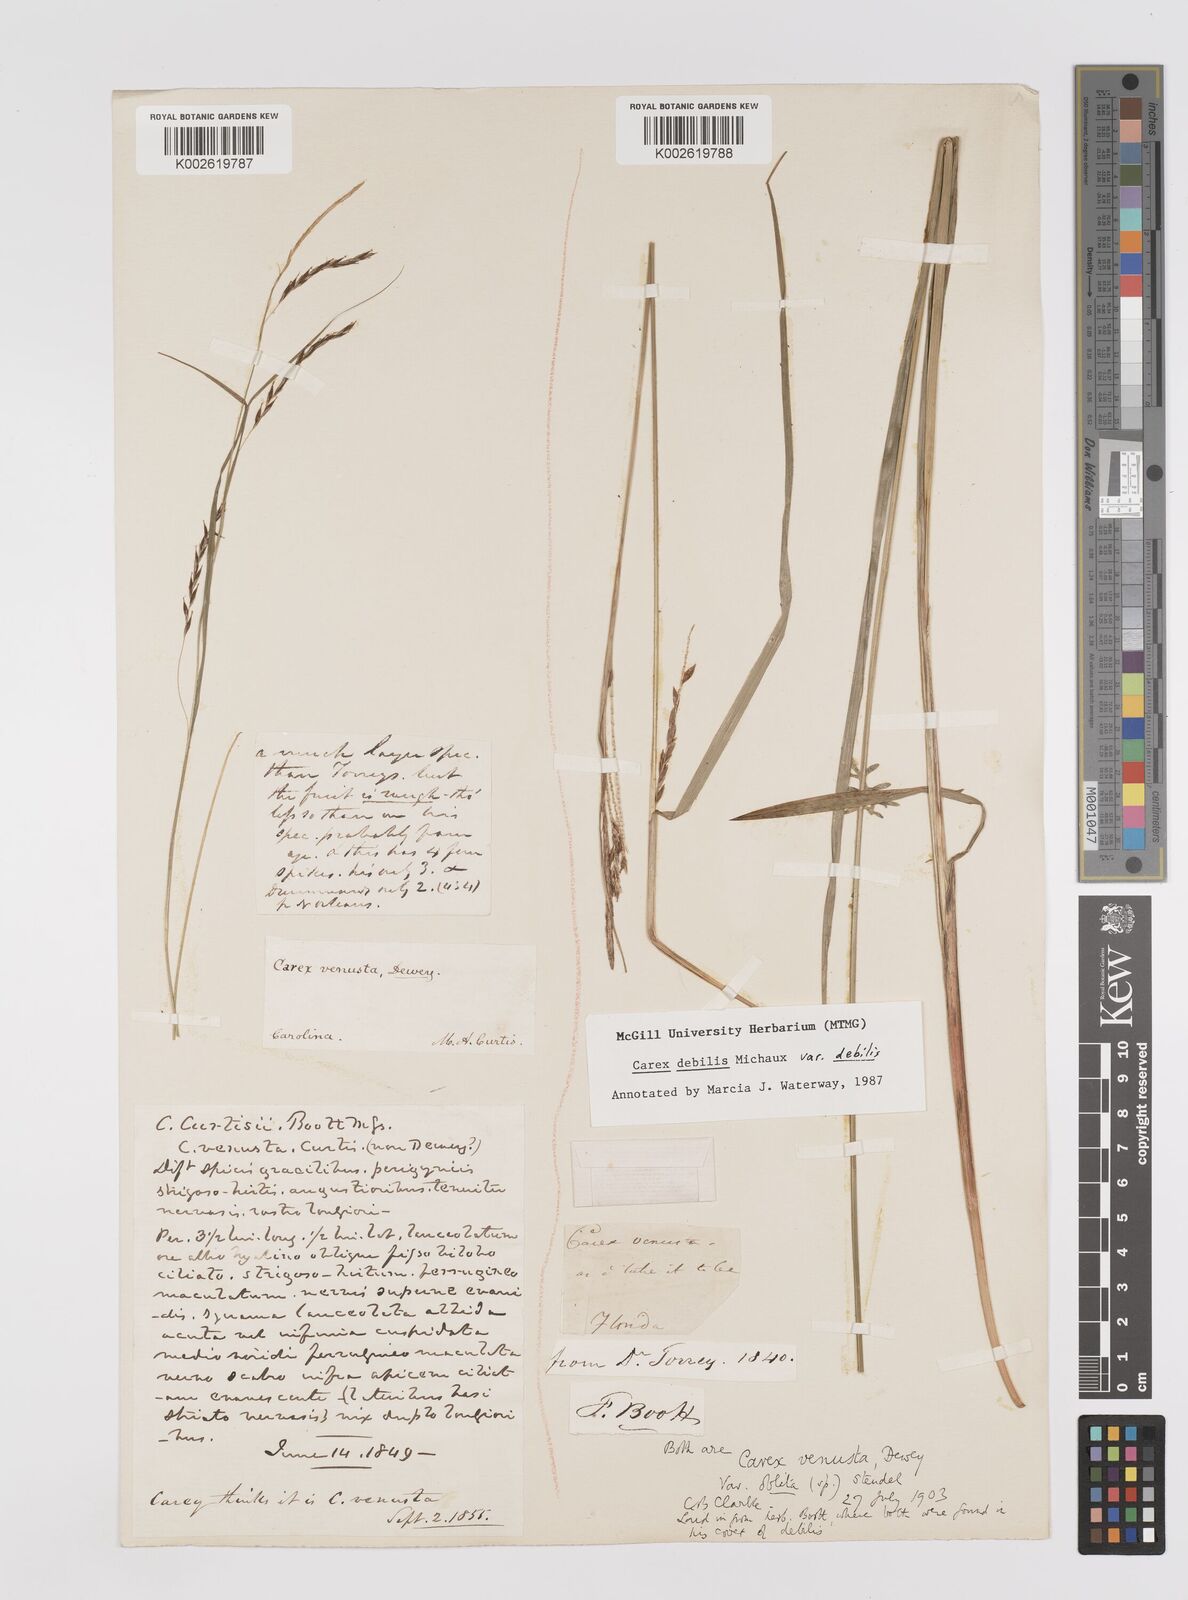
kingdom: Plantae
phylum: Tracheophyta
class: Liliopsida
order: Poales
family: Cyperaceae
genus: Carex
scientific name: Carex debilis
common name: White-edge sedge
